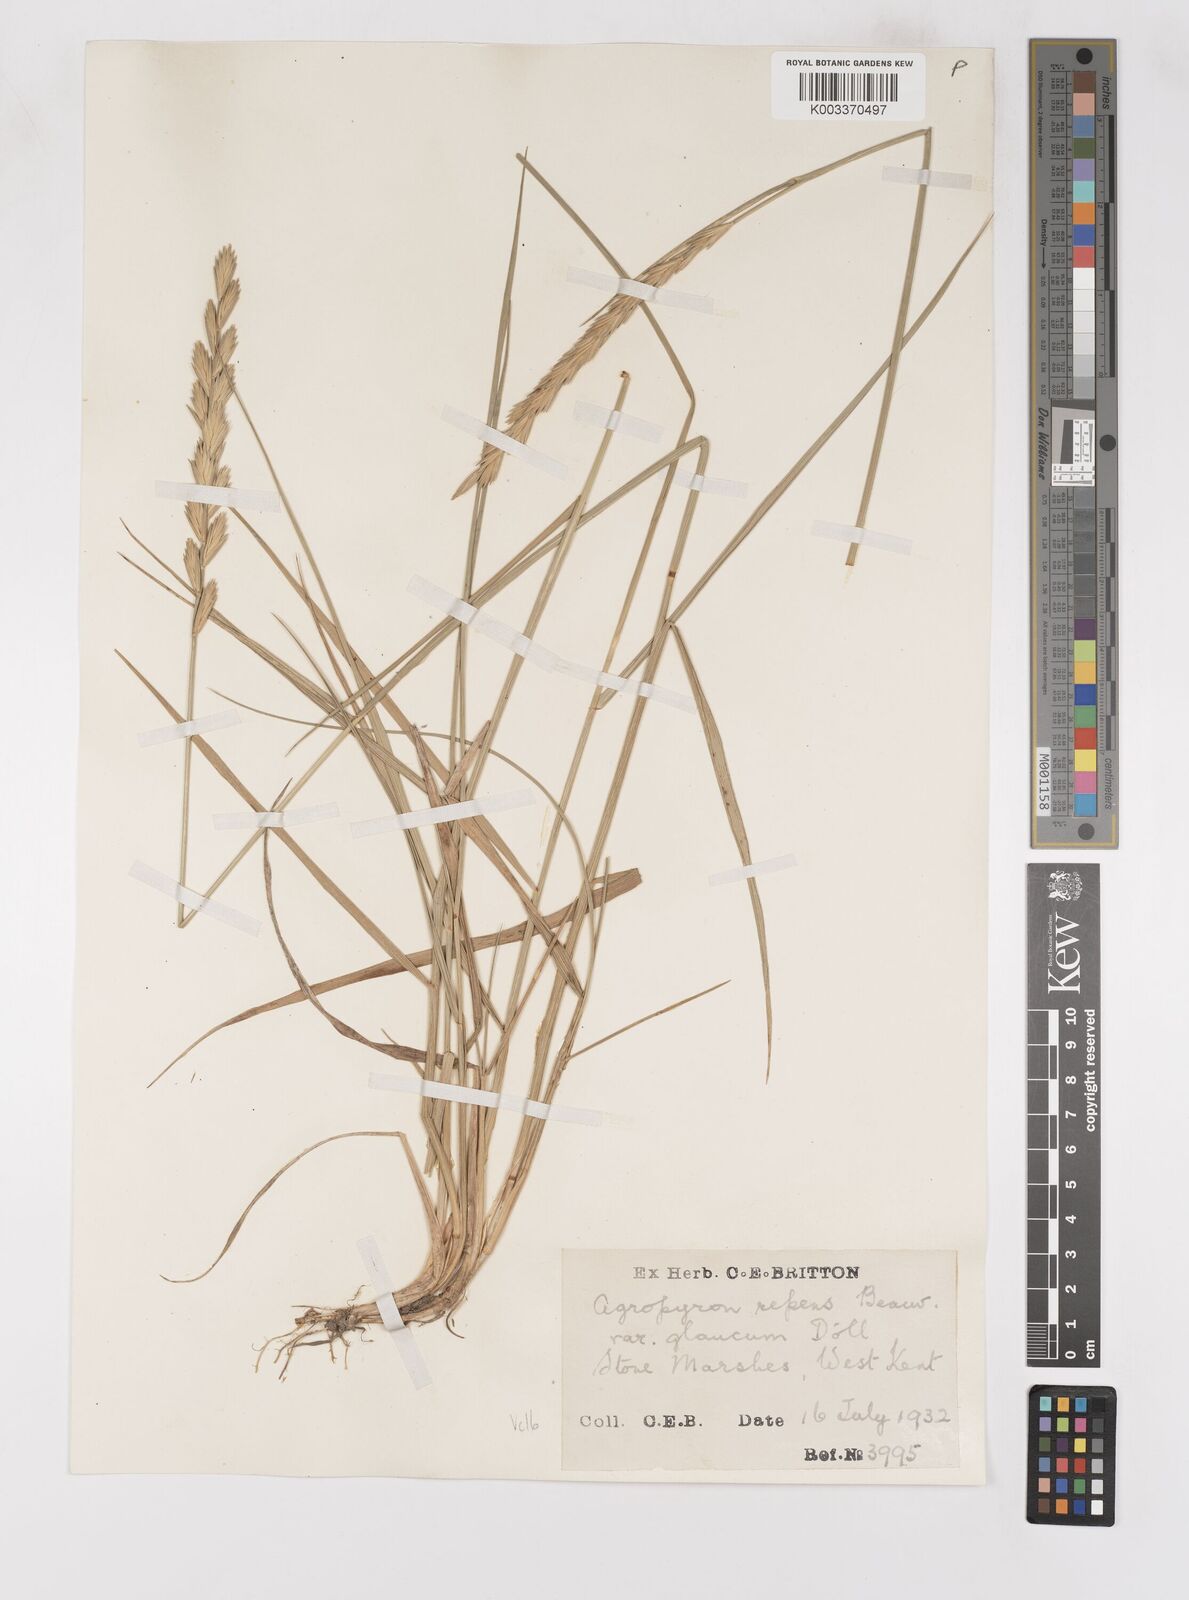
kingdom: Plantae
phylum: Tracheophyta
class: Liliopsida
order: Poales
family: Poaceae
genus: Thinoelymus
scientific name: Thinoelymus obtusiusculus
